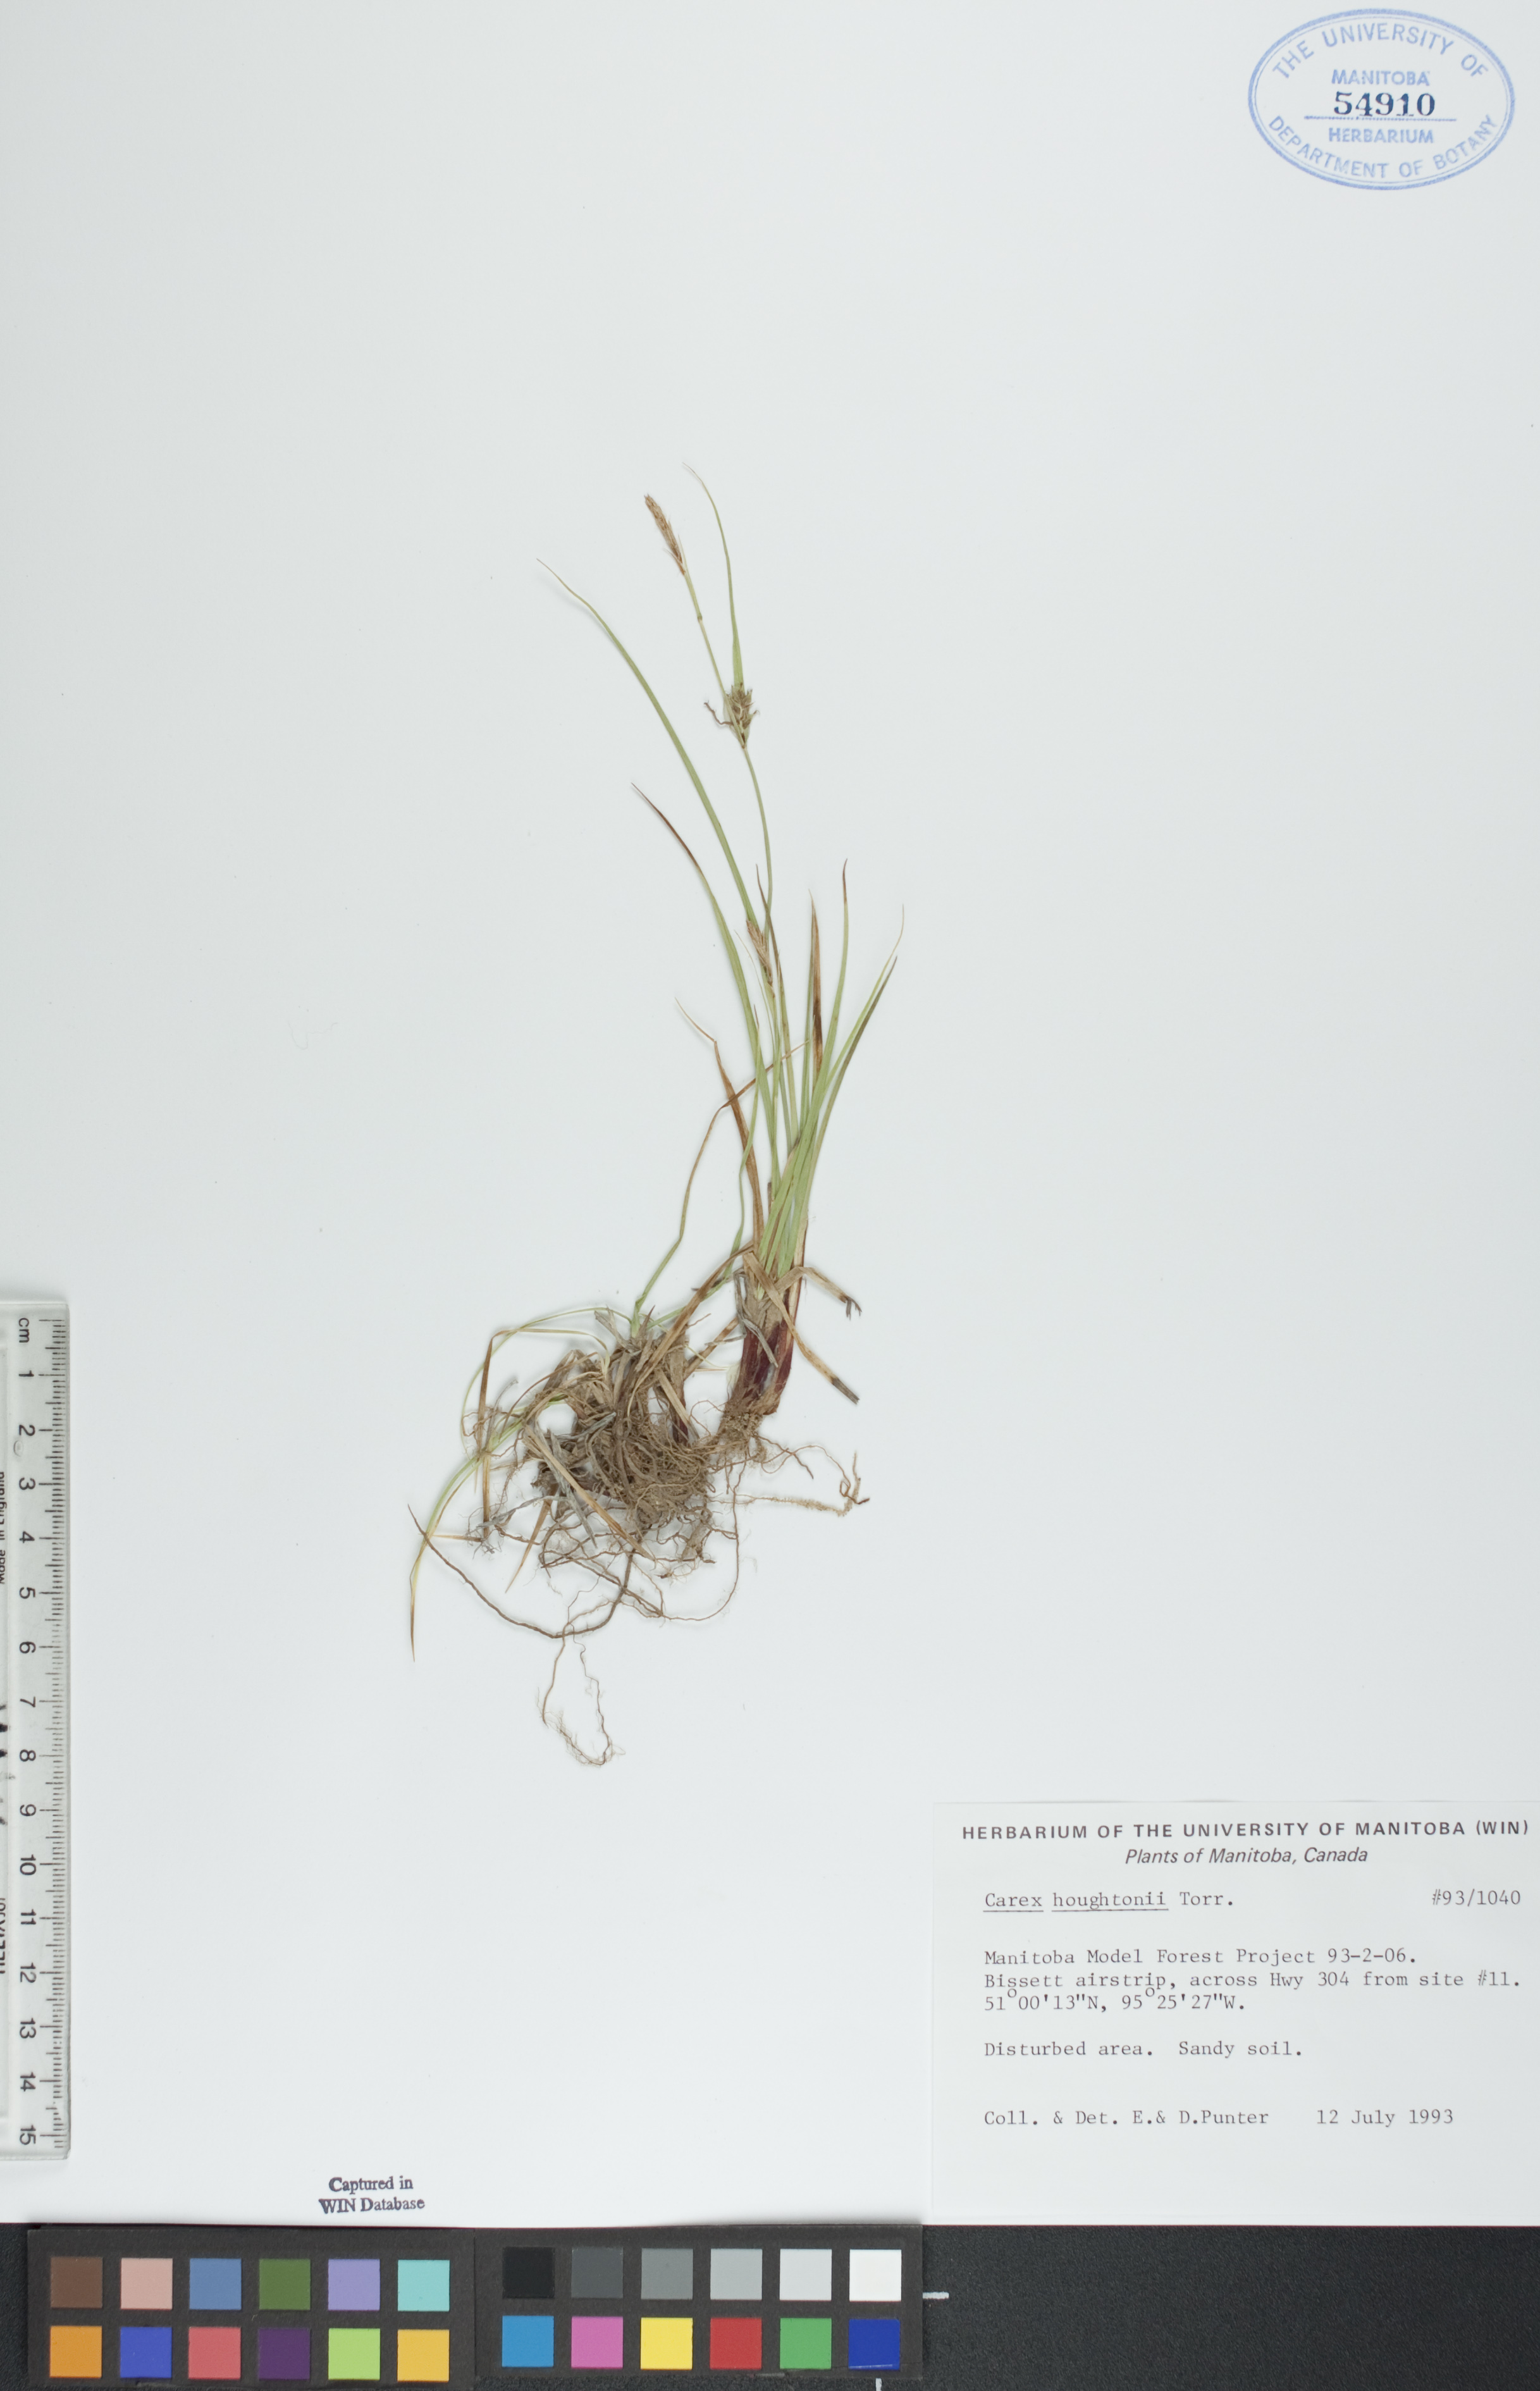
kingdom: Plantae
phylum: Tracheophyta
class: Liliopsida
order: Poales
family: Cyperaceae
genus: Carex
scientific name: Carex houghtoniana
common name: Houghton's sedge
